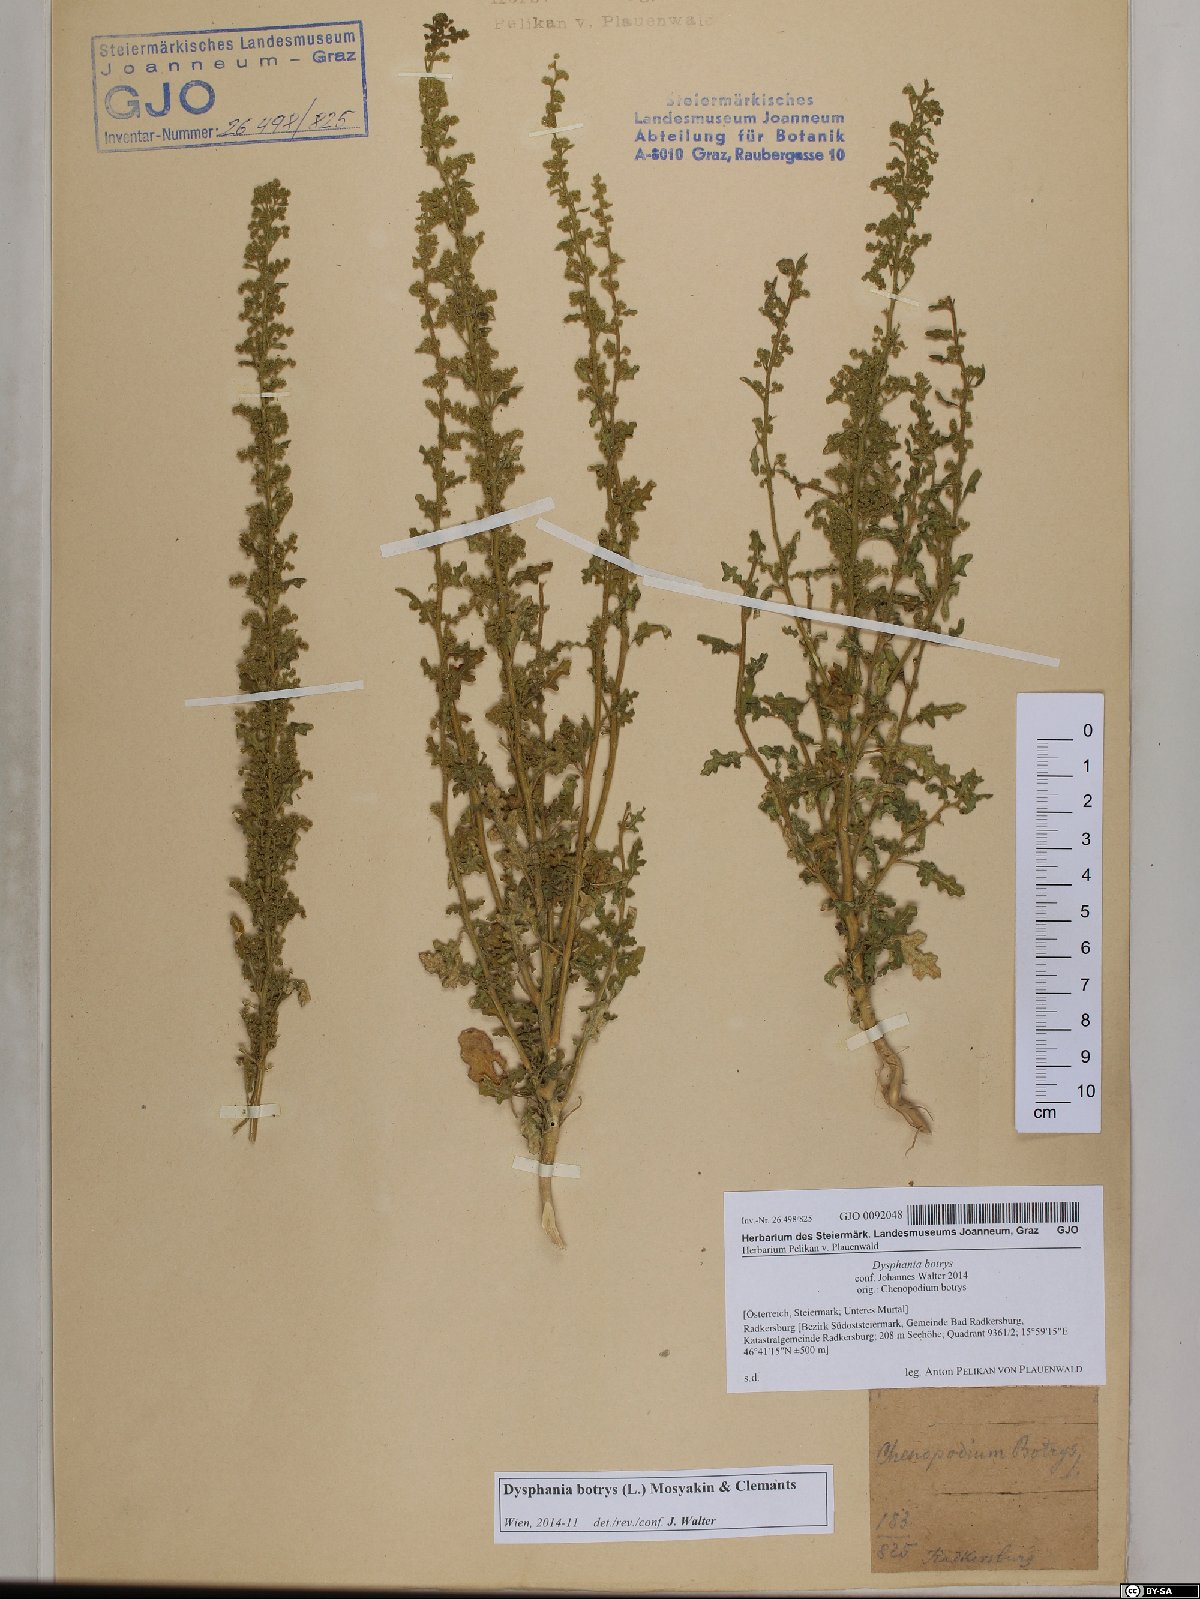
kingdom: Plantae
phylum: Tracheophyta
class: Magnoliopsida
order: Caryophyllales
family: Amaranthaceae
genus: Dysphania
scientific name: Dysphania botrys
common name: Feather-geranium
